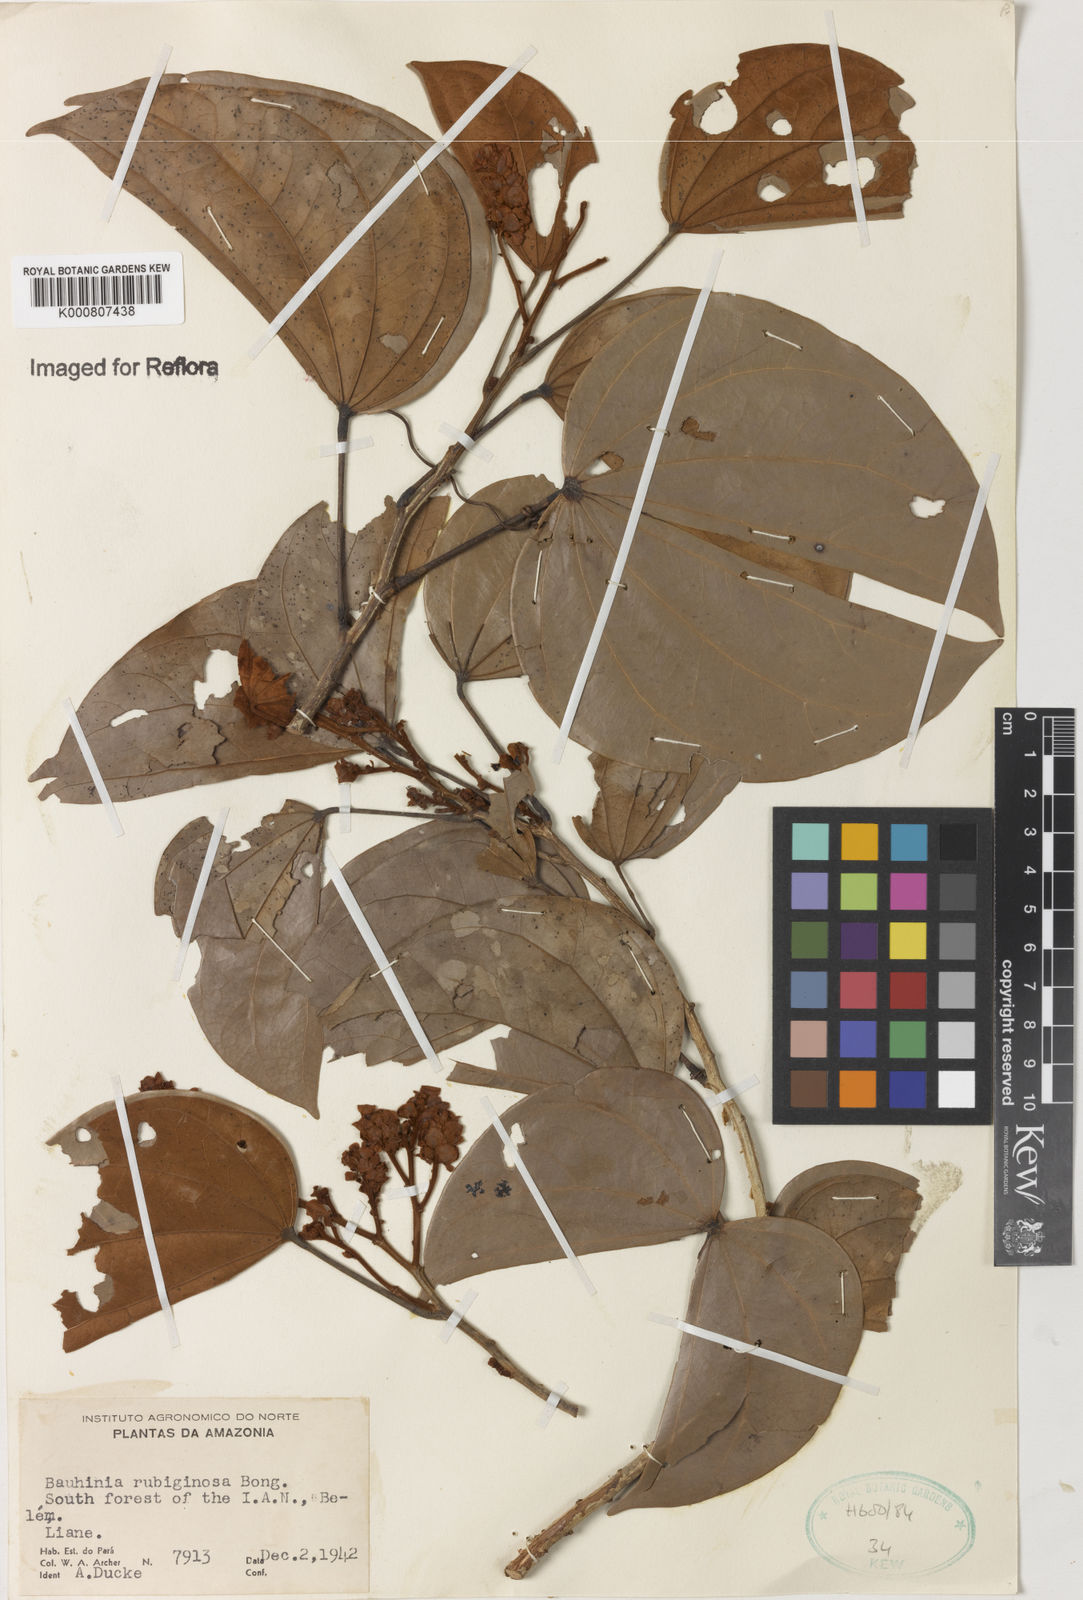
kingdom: Plantae
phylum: Tracheophyta
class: Magnoliopsida
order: Fabales
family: Fabaceae
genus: Schnella
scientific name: Schnella outimouta
